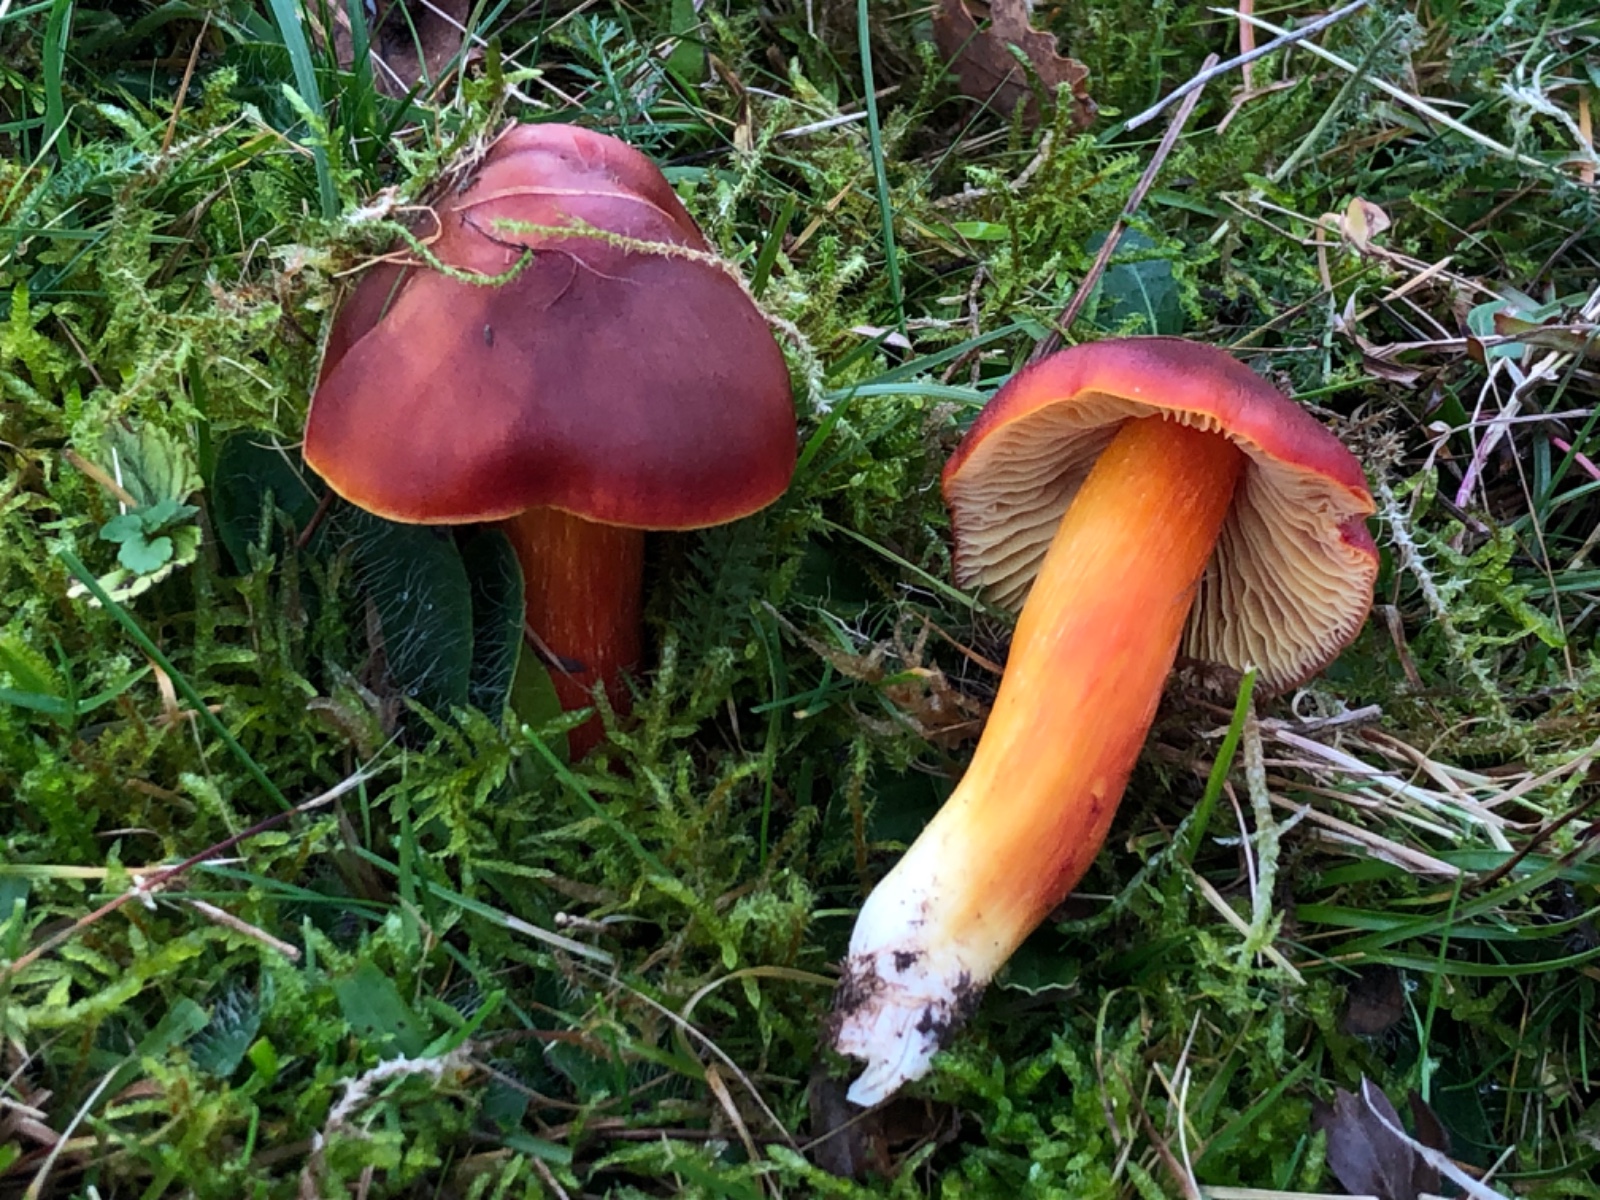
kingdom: Fungi
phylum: Basidiomycota
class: Agaricomycetes
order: Agaricales
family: Hygrophoraceae
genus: Hygrocybe
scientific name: Hygrocybe punicea
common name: skarlagen-vokshat
